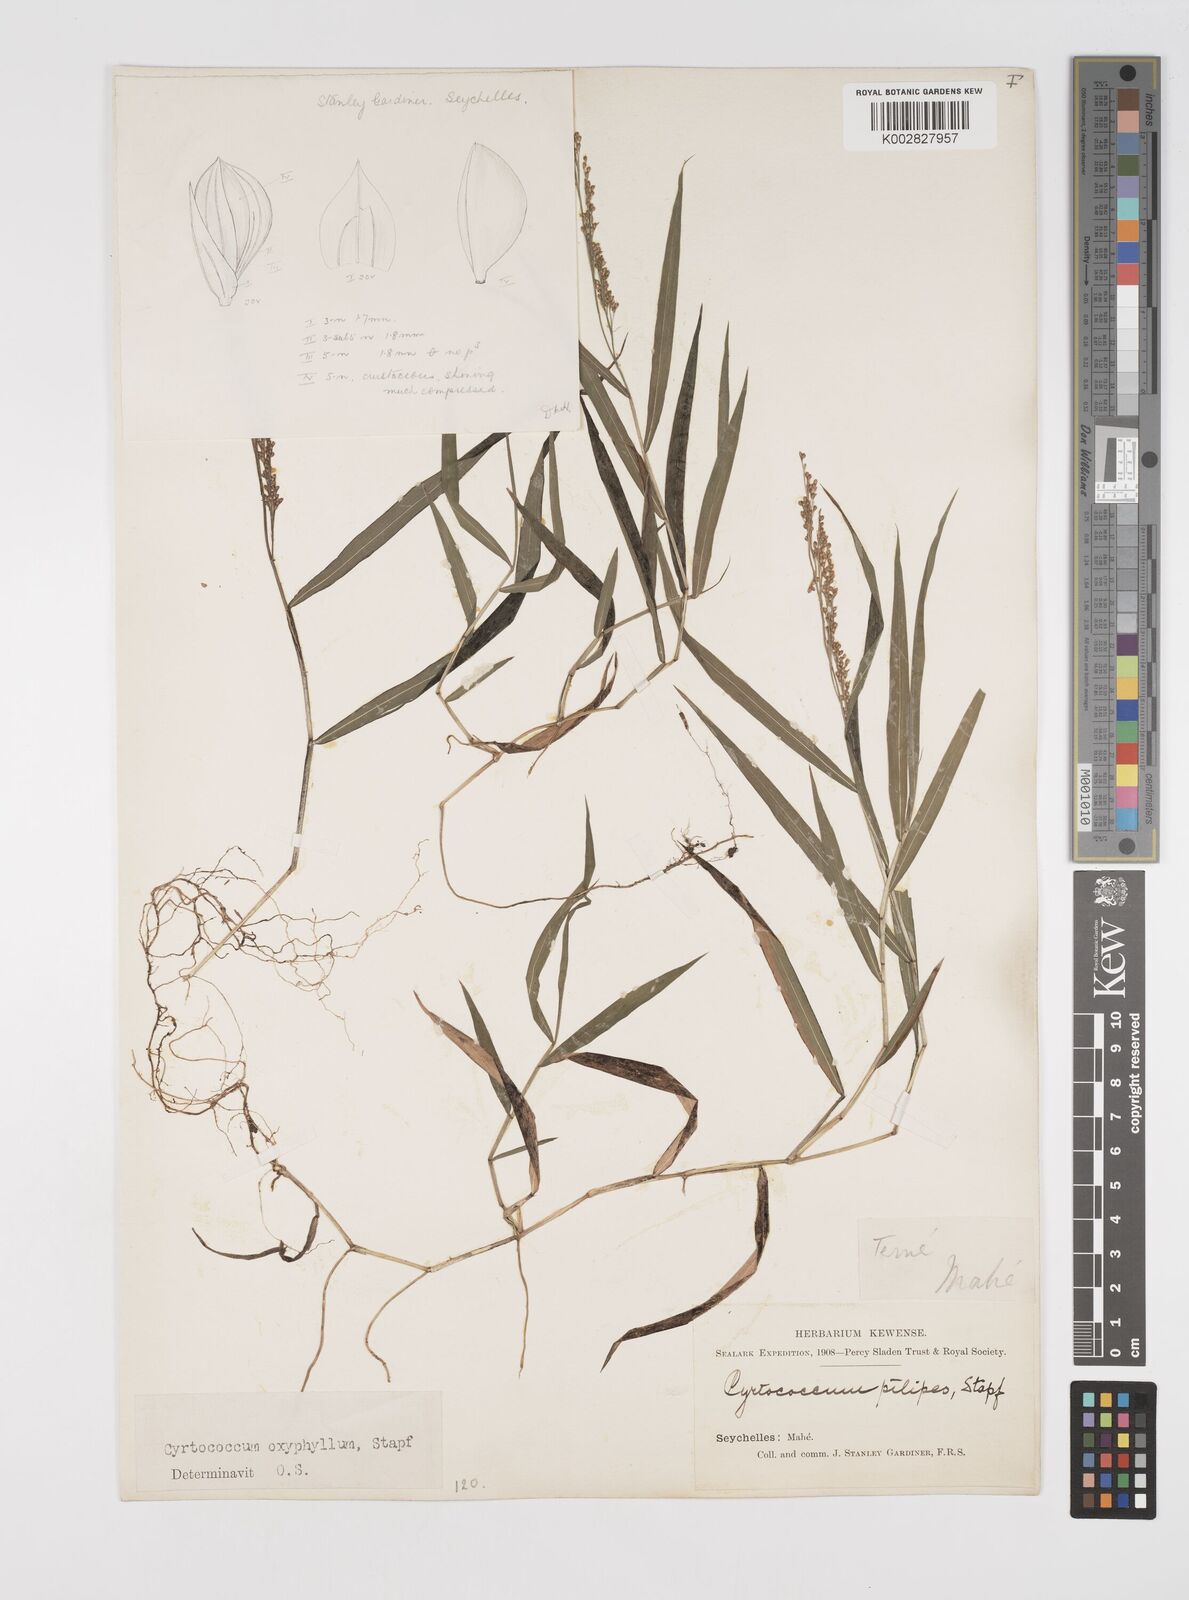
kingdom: Plantae
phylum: Tracheophyta
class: Liliopsida
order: Poales
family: Poaceae
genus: Cyrtococcum
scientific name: Cyrtococcum oxyphyllum
